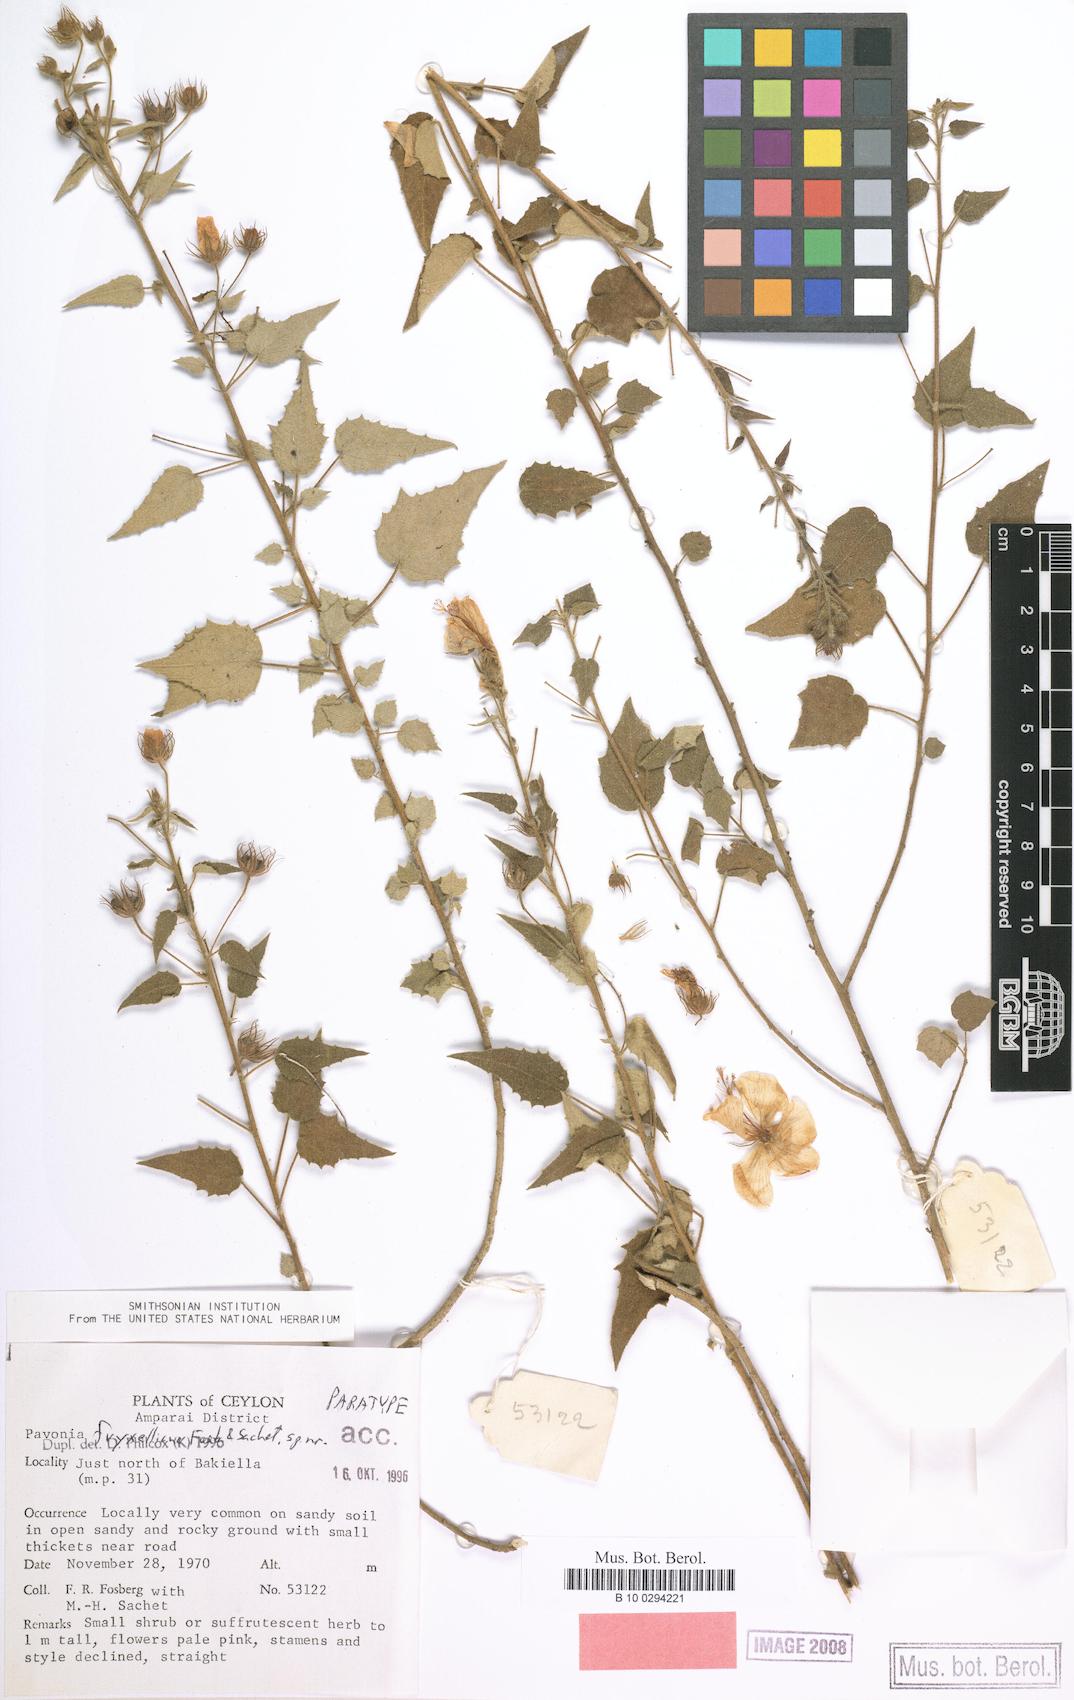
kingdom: Plantae
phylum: Tracheophyta
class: Magnoliopsida
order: Malvales
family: Malvaceae
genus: Pavonia
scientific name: Pavonia fryxelliana
